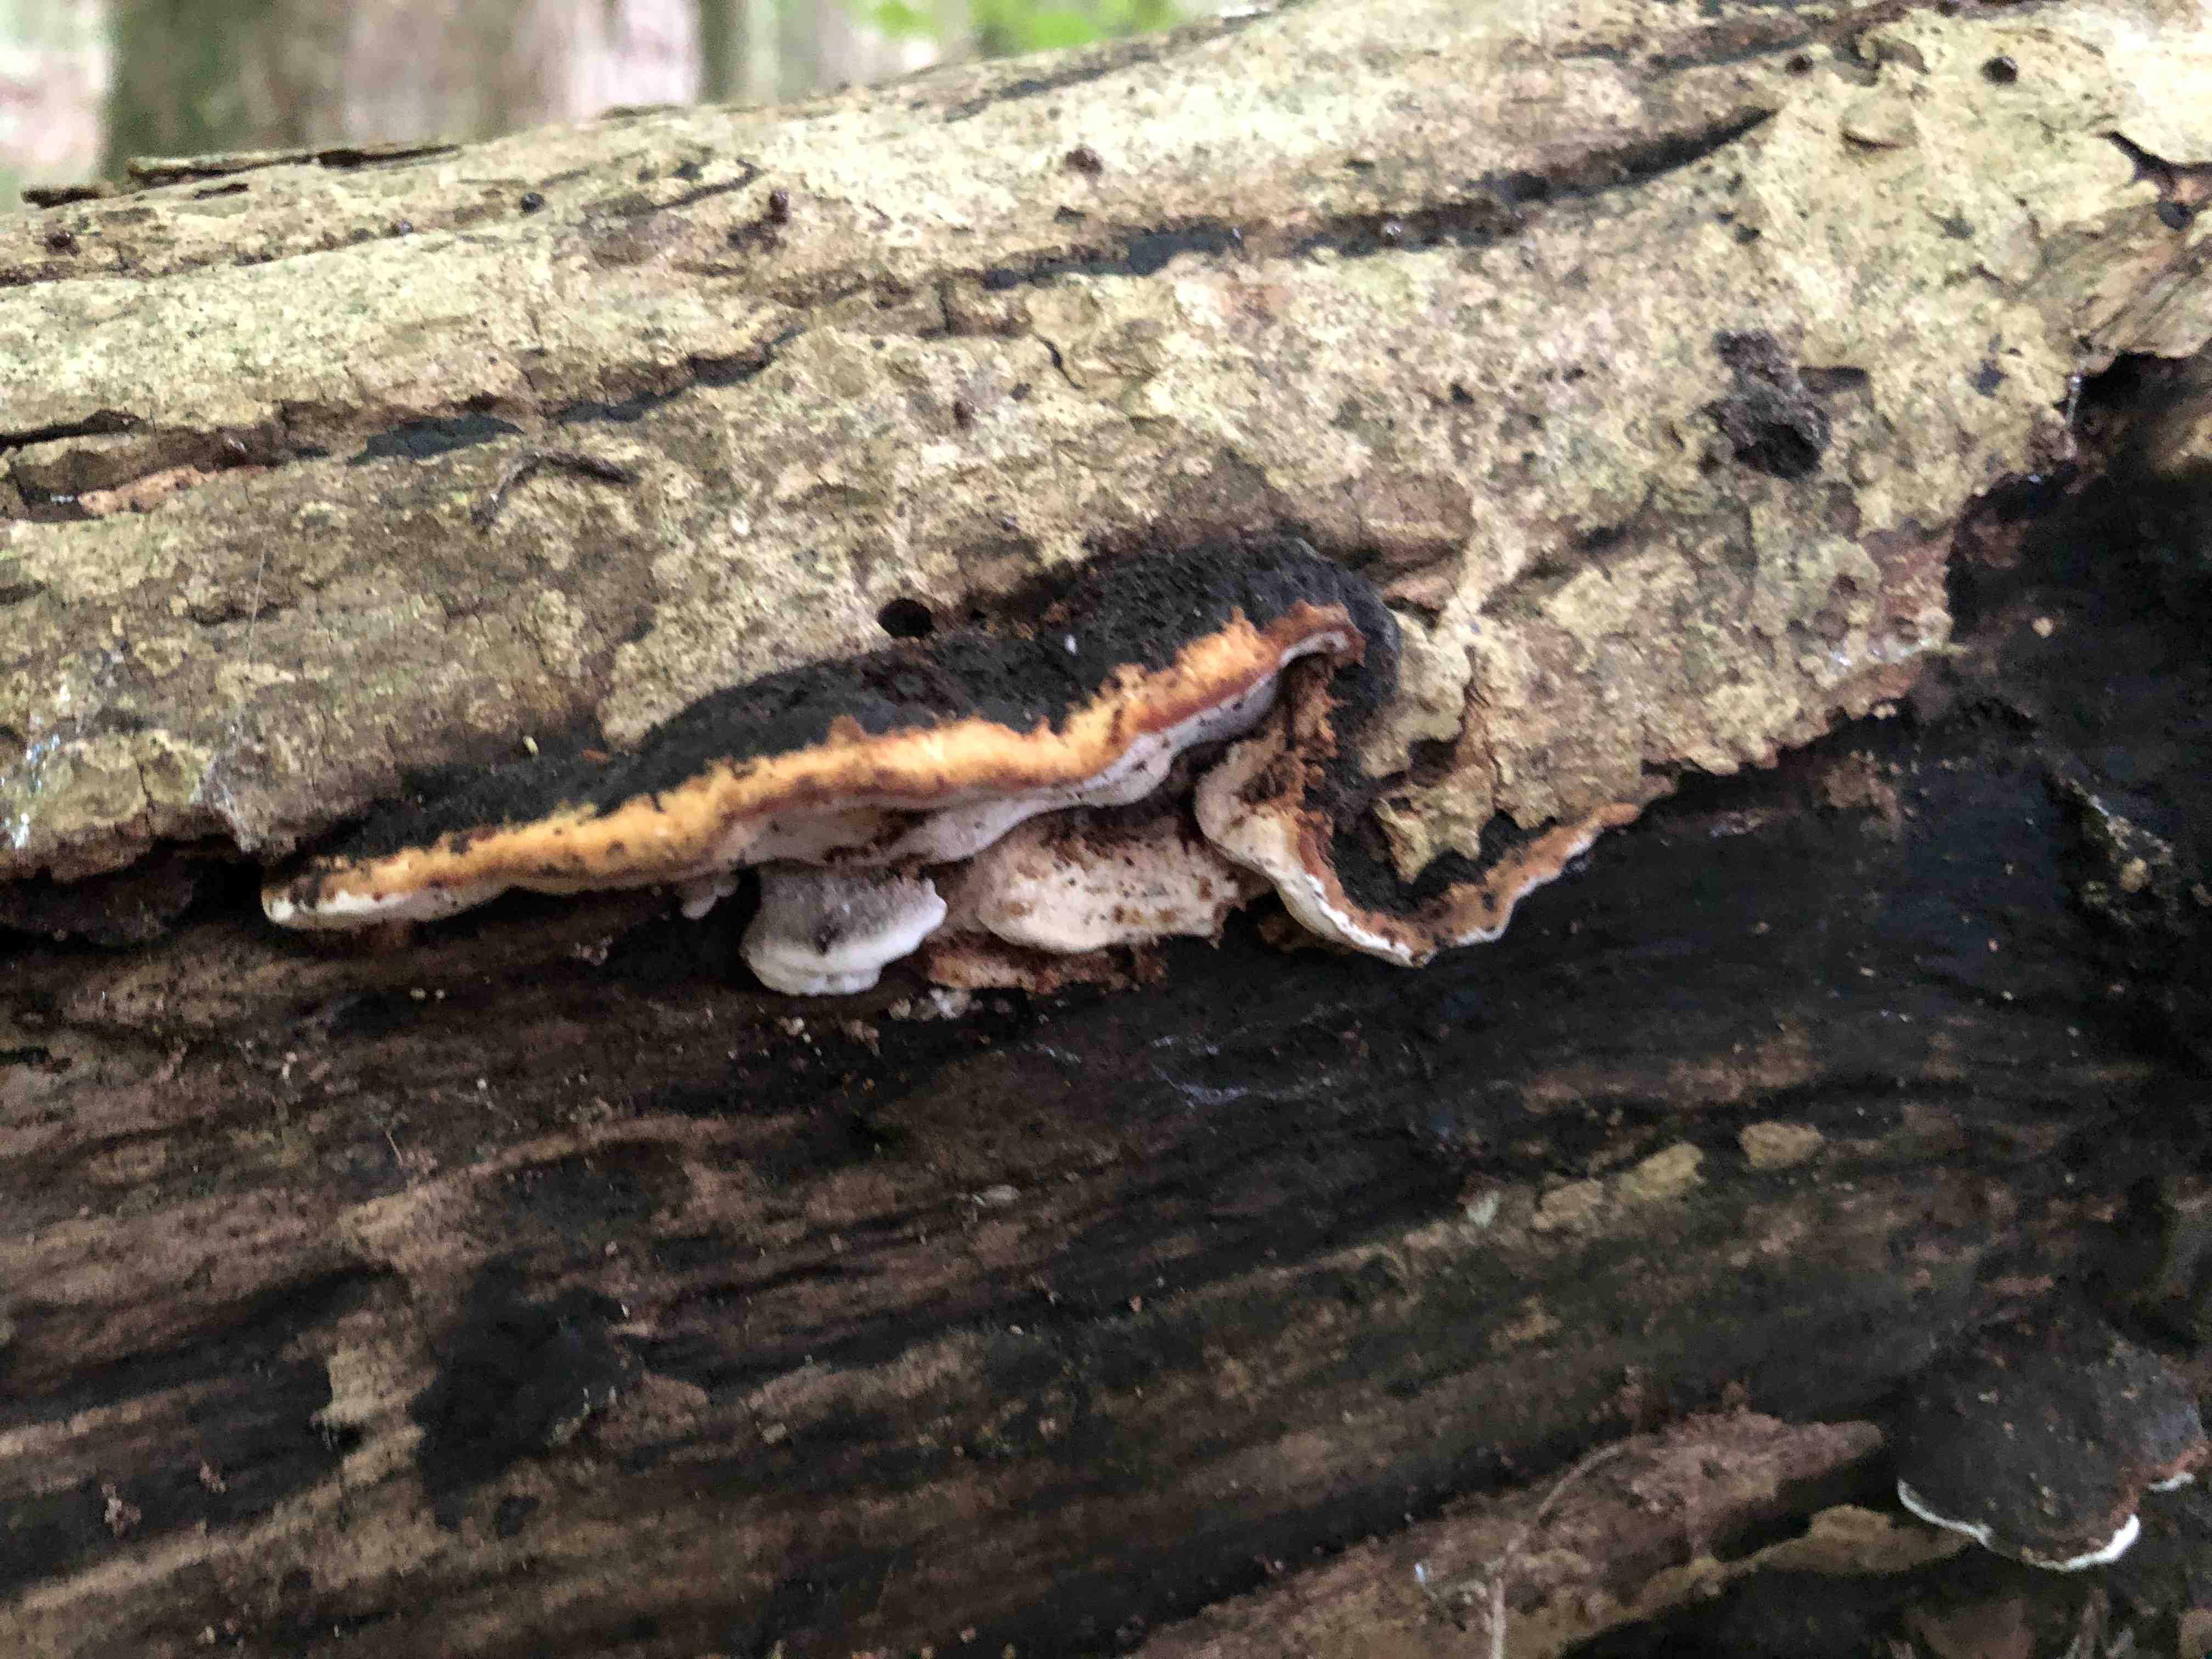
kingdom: Fungi
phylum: Basidiomycota
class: Agaricomycetes
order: Polyporales
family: Incrustoporiaceae
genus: Skeletocutis
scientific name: Skeletocutis nemoralis
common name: stor krystalporesvamp
